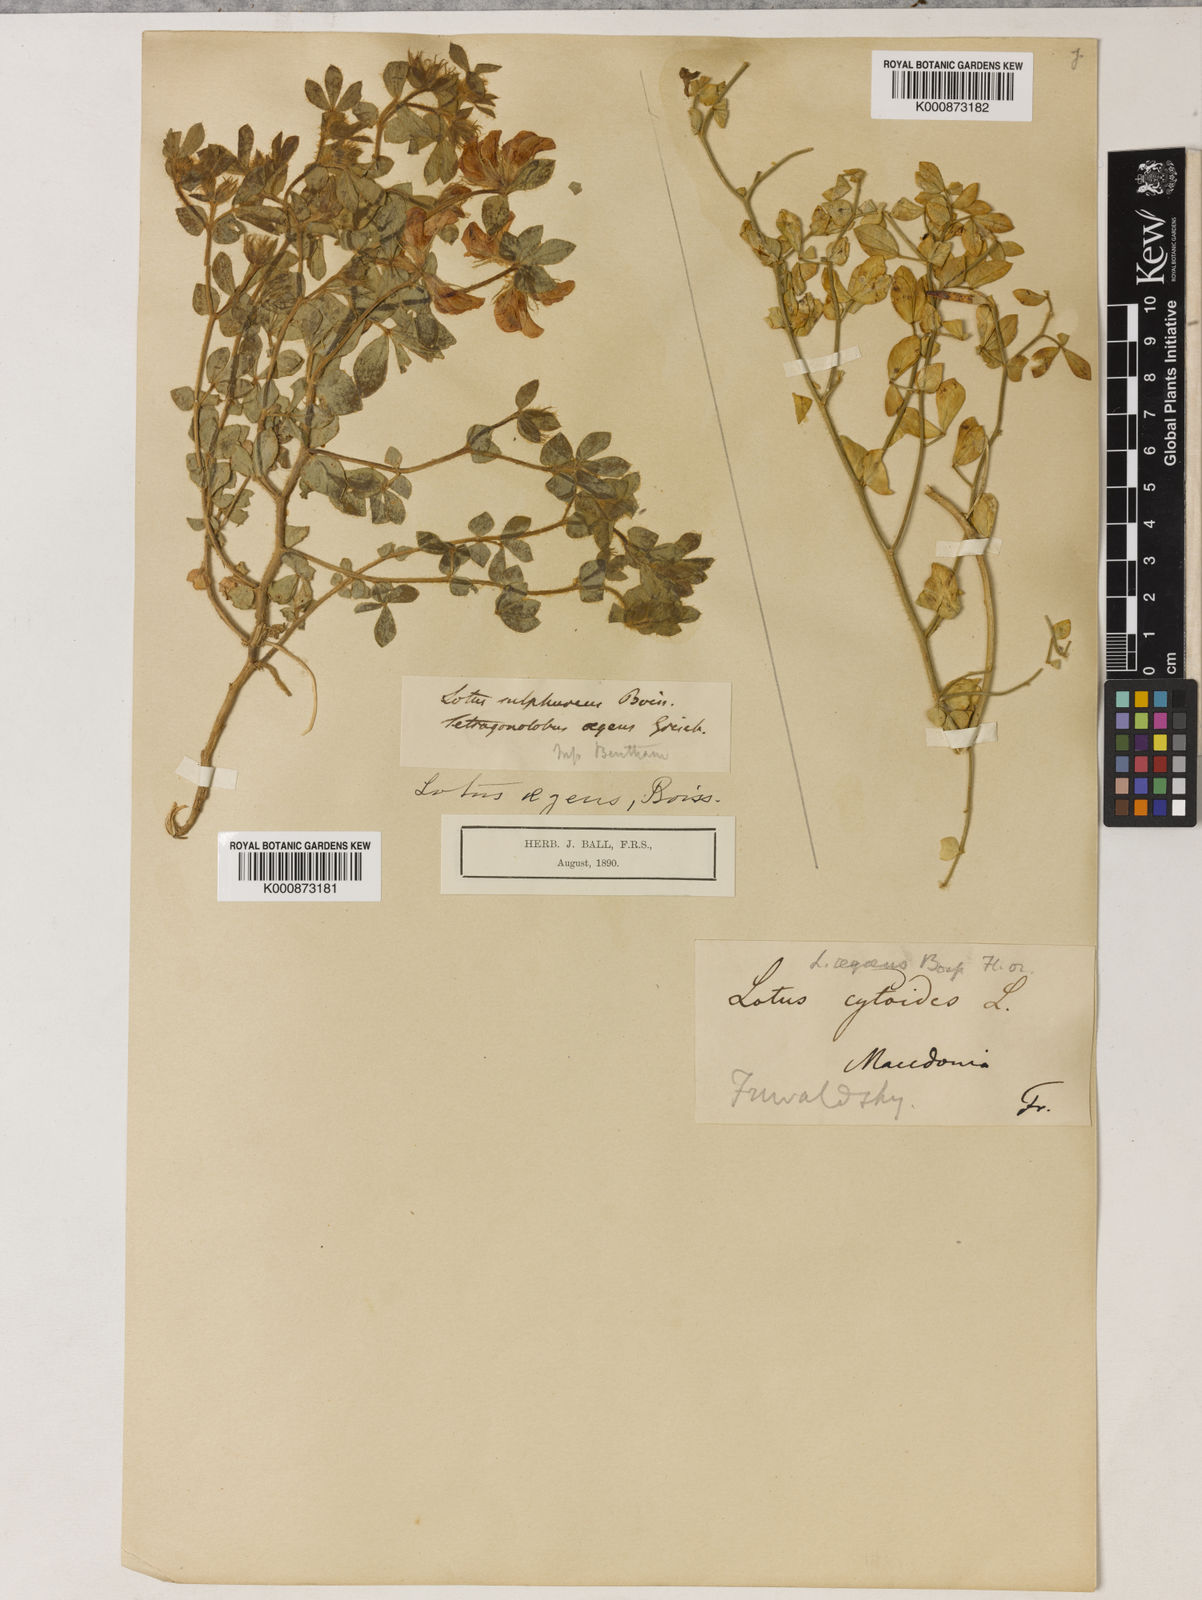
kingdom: Plantae
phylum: Tracheophyta
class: Magnoliopsida
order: Fabales
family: Fabaceae
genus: Lotus
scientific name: Lotus
